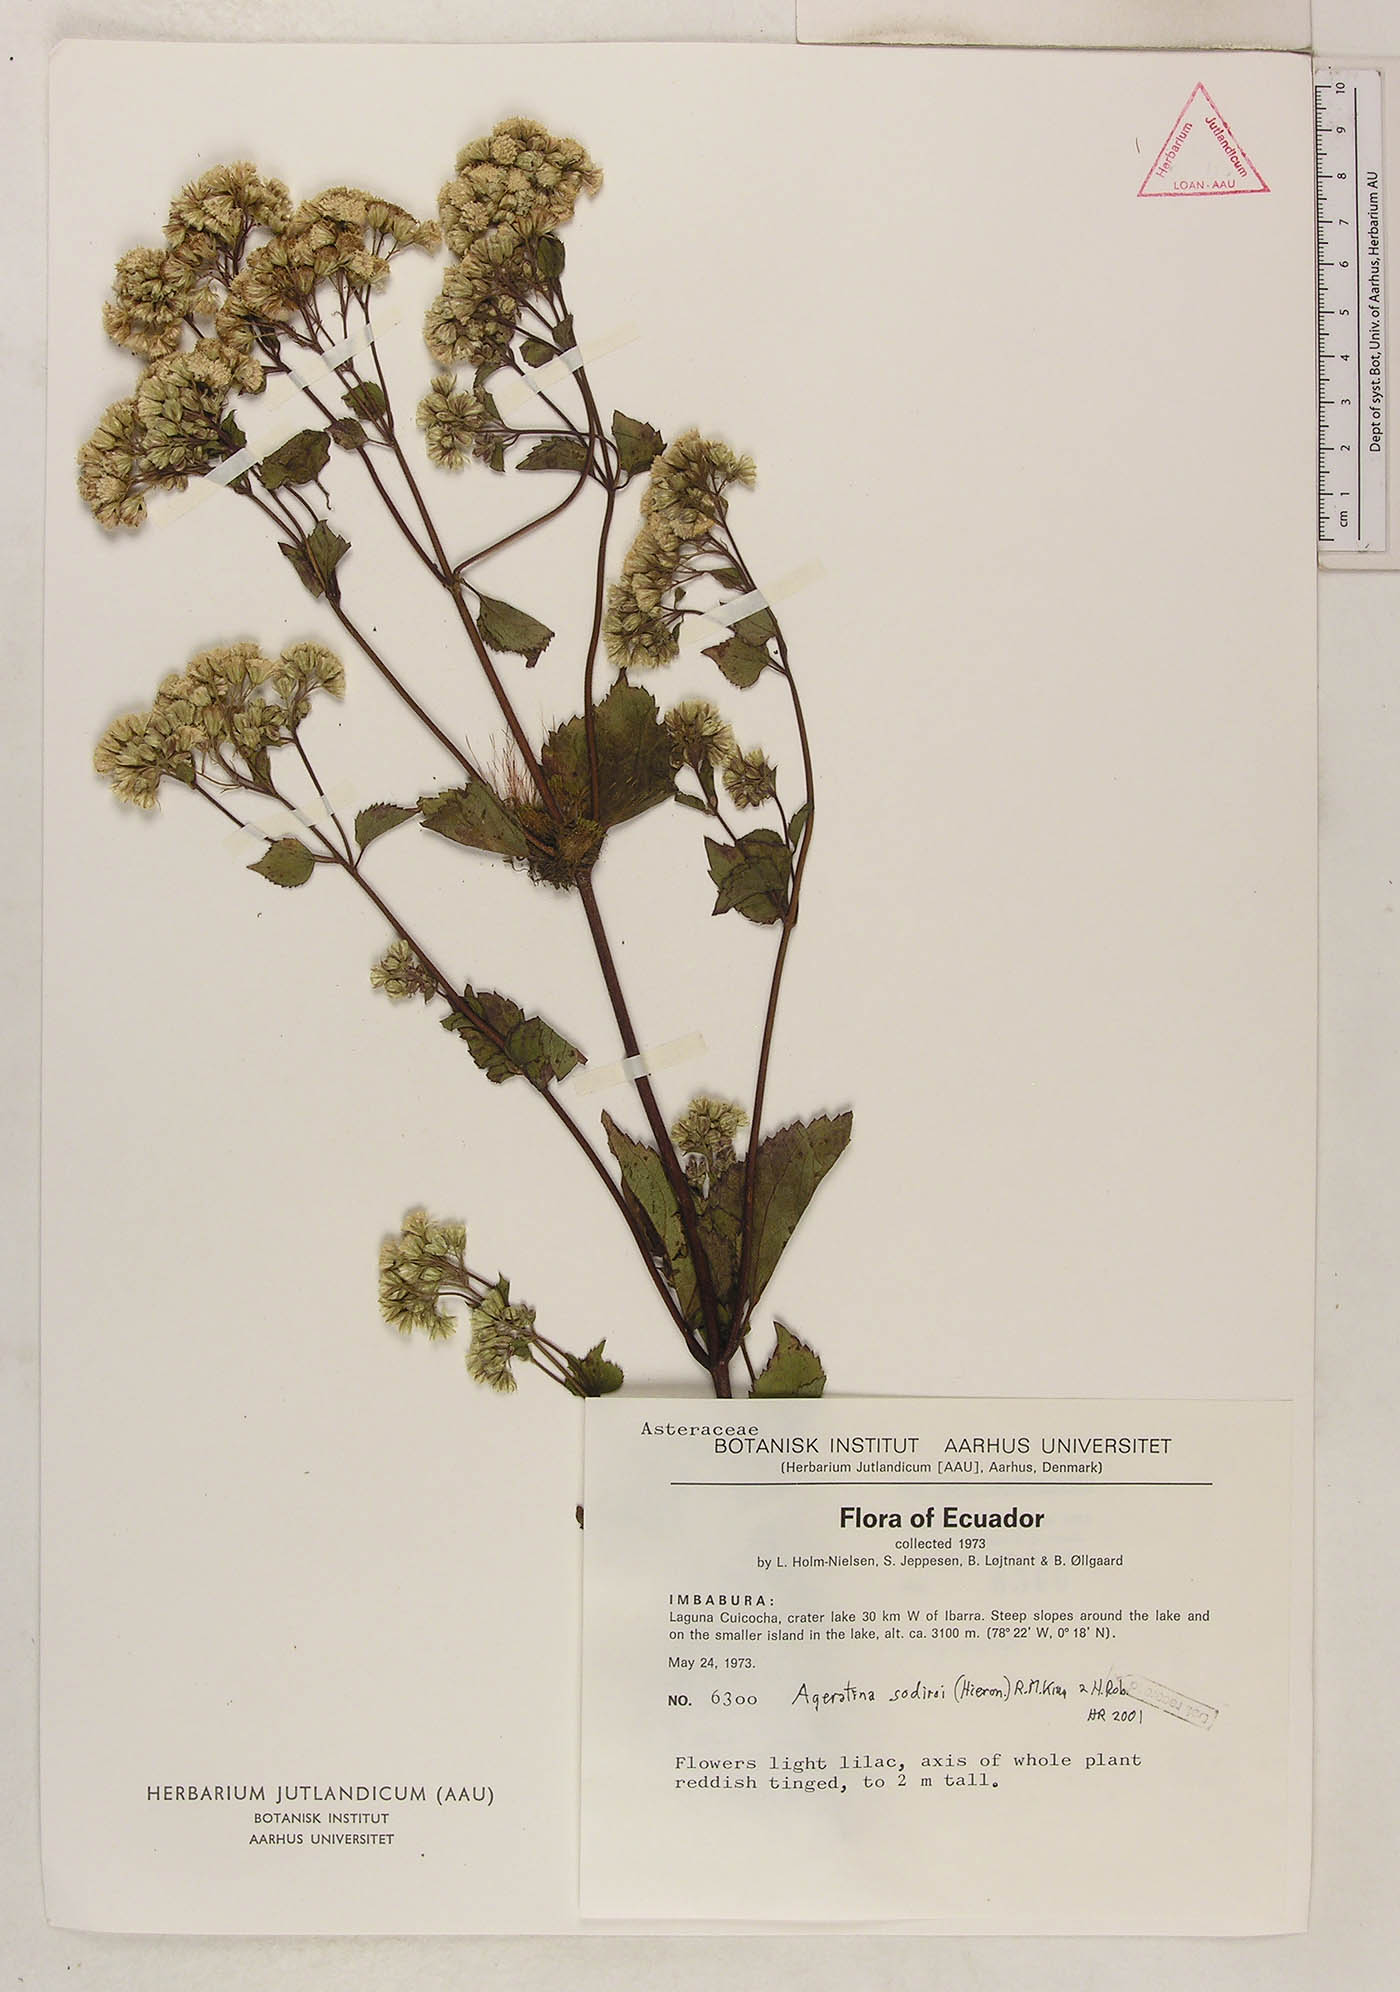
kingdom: Plantae
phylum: Tracheophyta
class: Magnoliopsida
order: Asterales
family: Asteraceae
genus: Ageratina
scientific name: Ageratina sodiroi
